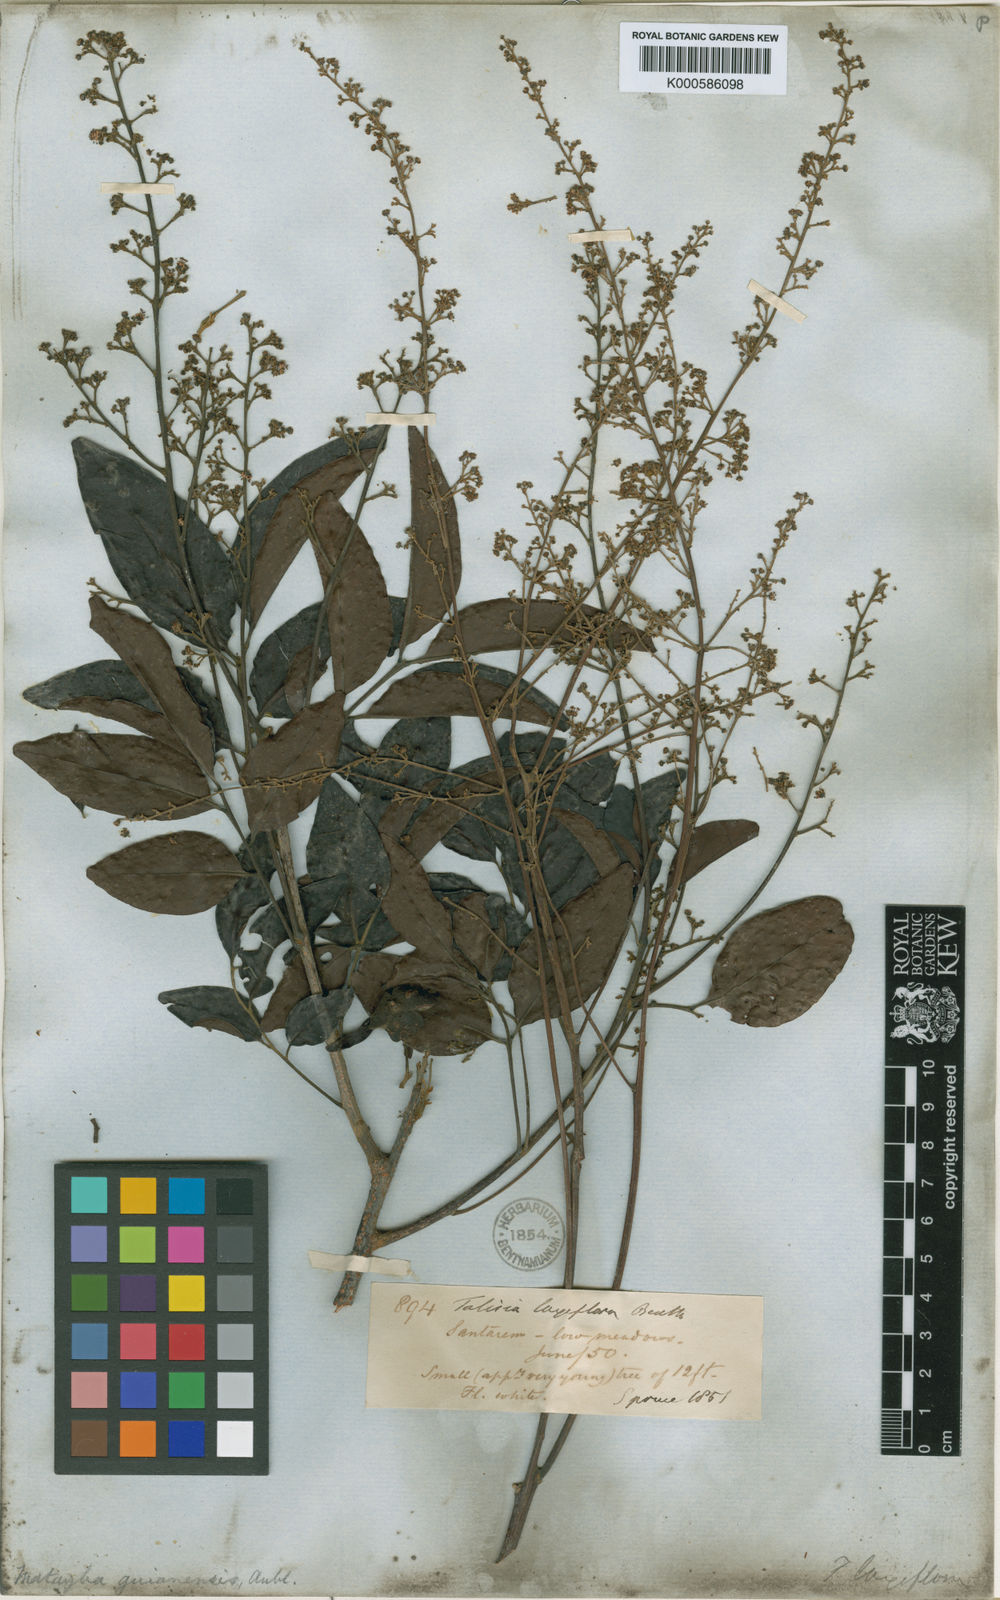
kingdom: Plantae
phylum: Tracheophyta
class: Magnoliopsida
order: Sapindales
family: Sapindaceae
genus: Matayba
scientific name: Matayba guianensis
